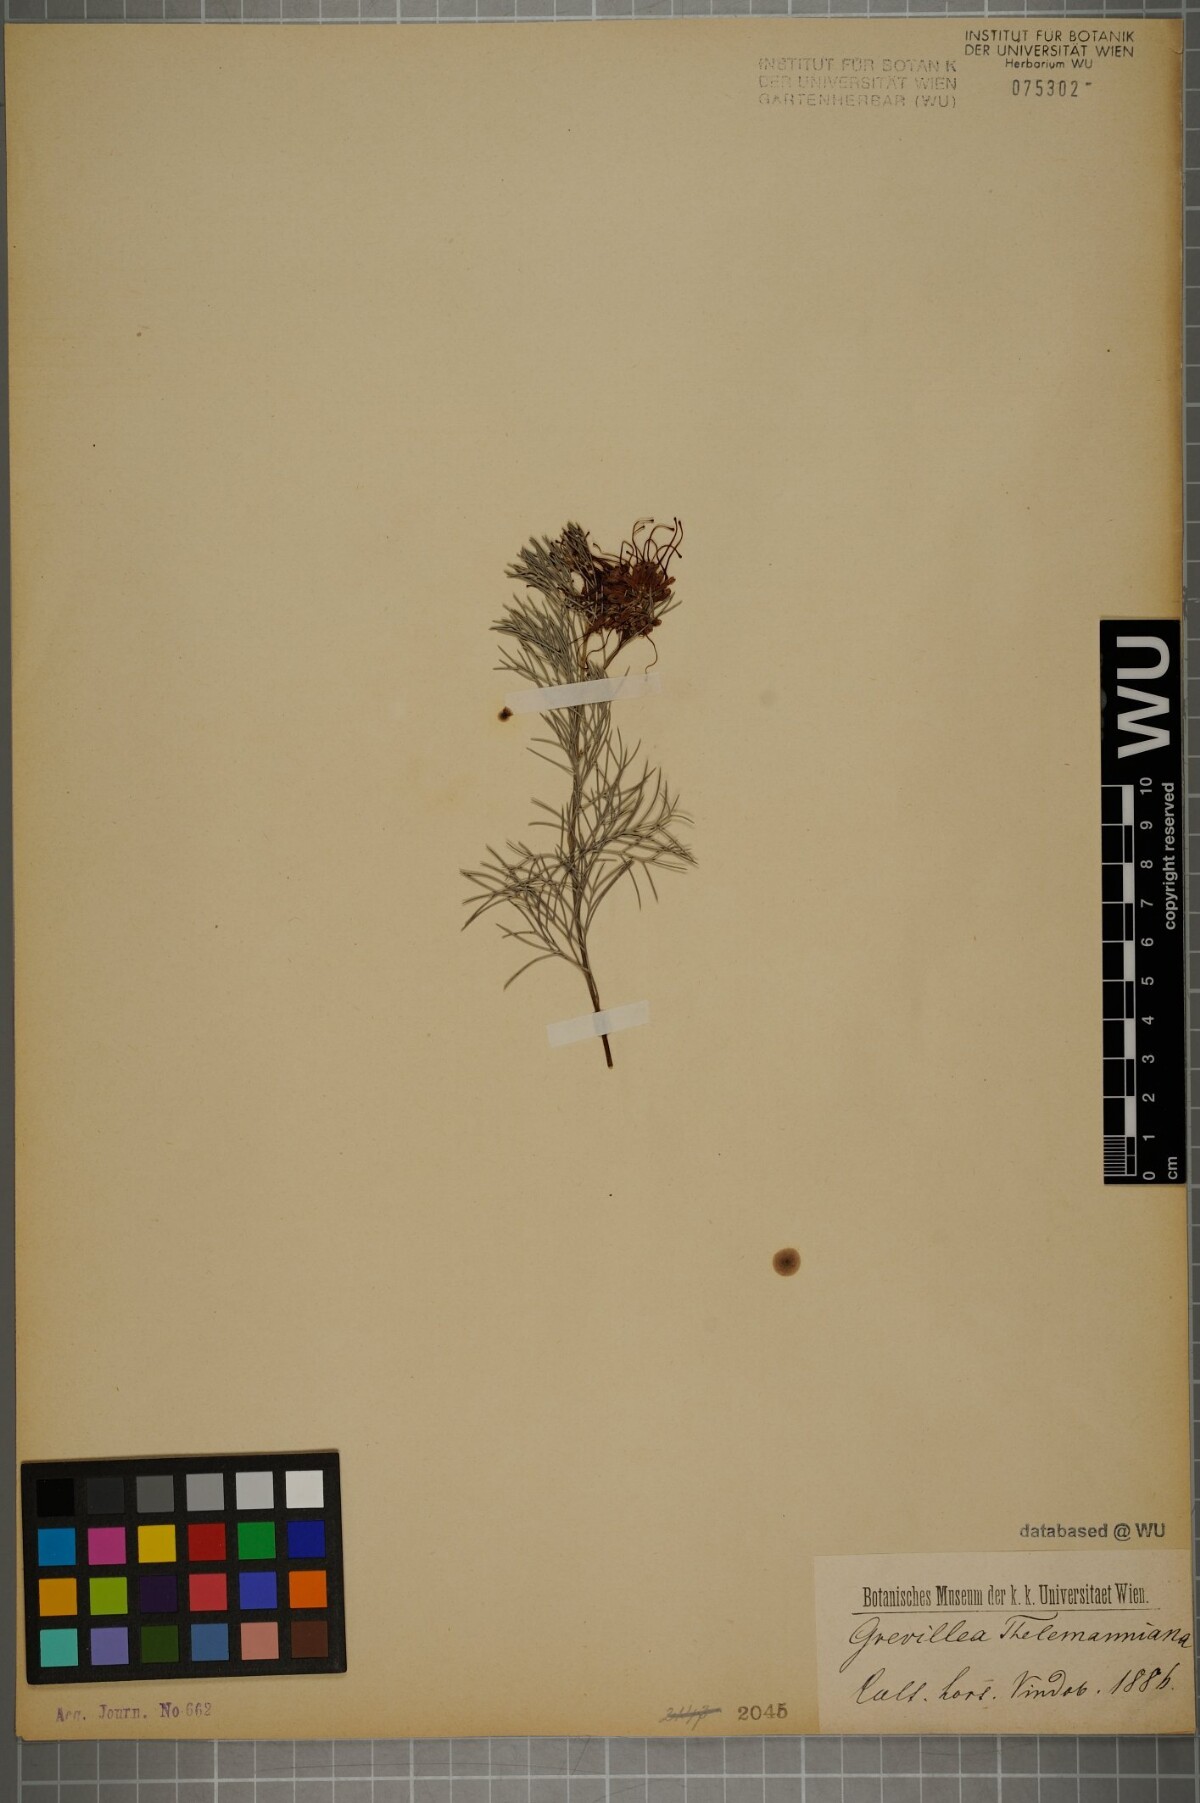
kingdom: Plantae
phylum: Tracheophyta
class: Magnoliopsida
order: Proteales
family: Proteaceae
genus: Grevillea
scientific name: Grevillea thelemanniana
